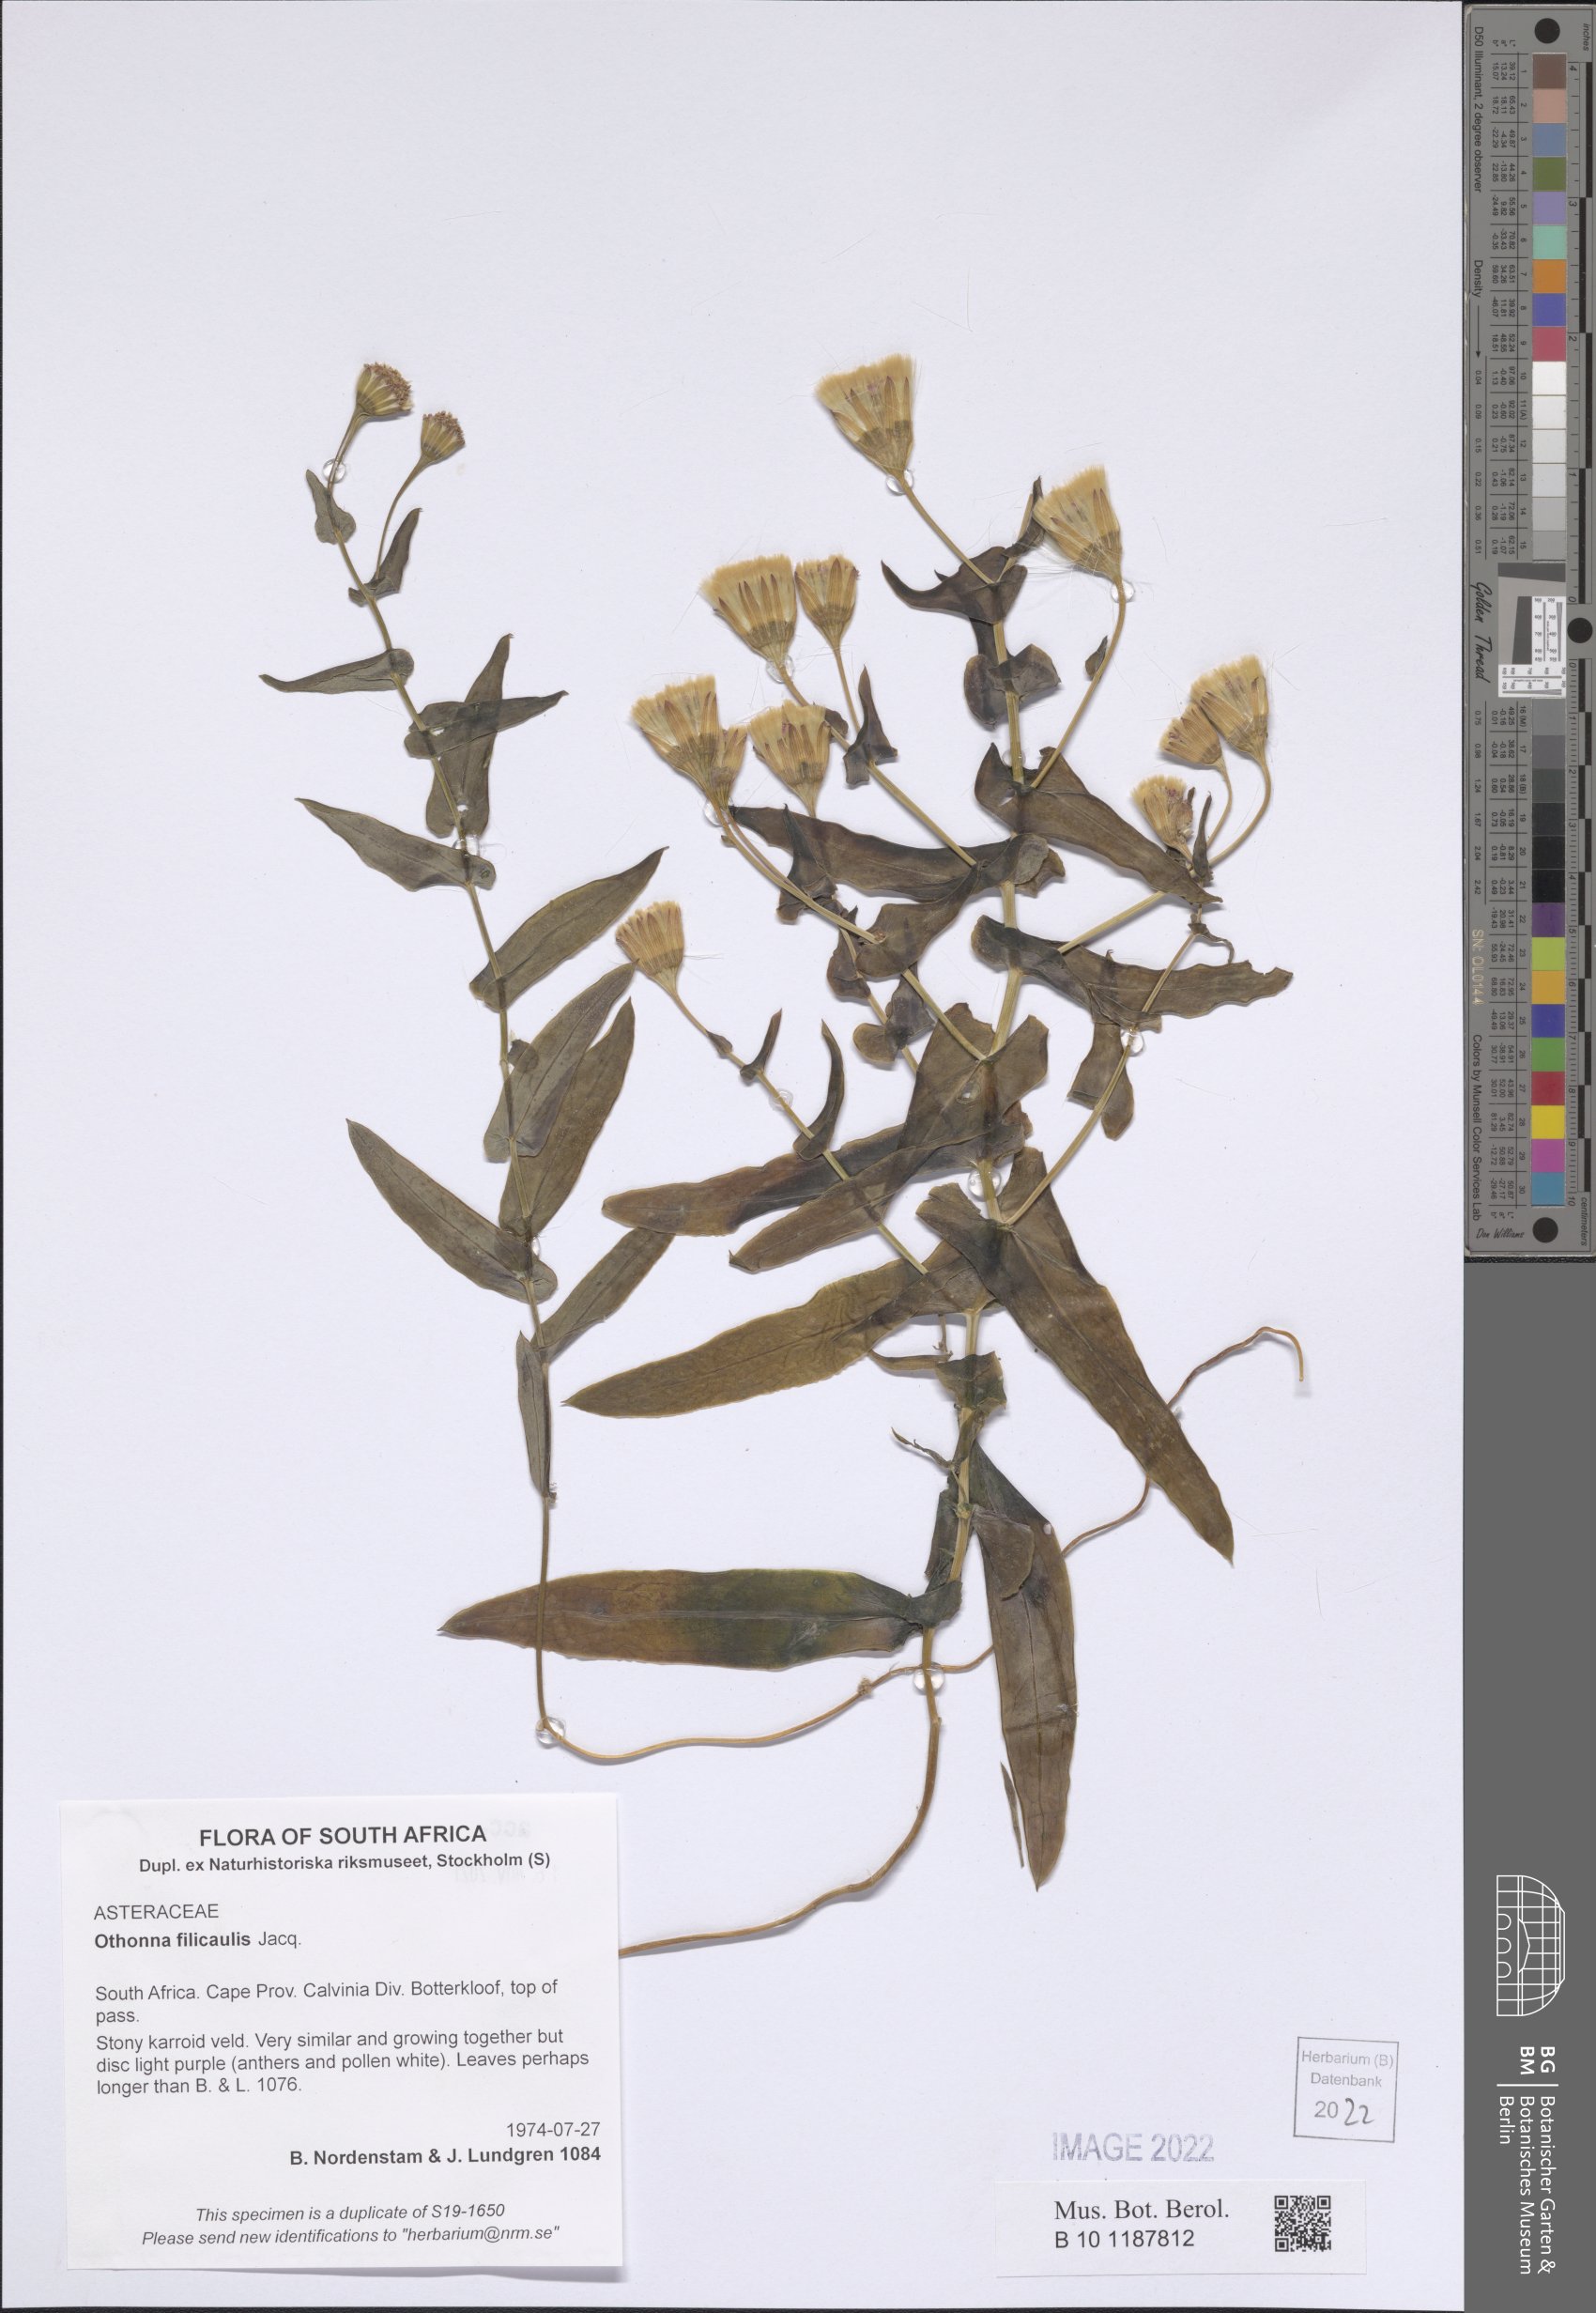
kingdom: Plantae
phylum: Tracheophyta
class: Magnoliopsida
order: Asterales
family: Asteraceae
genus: Othonna
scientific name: Othonna perfoliata
